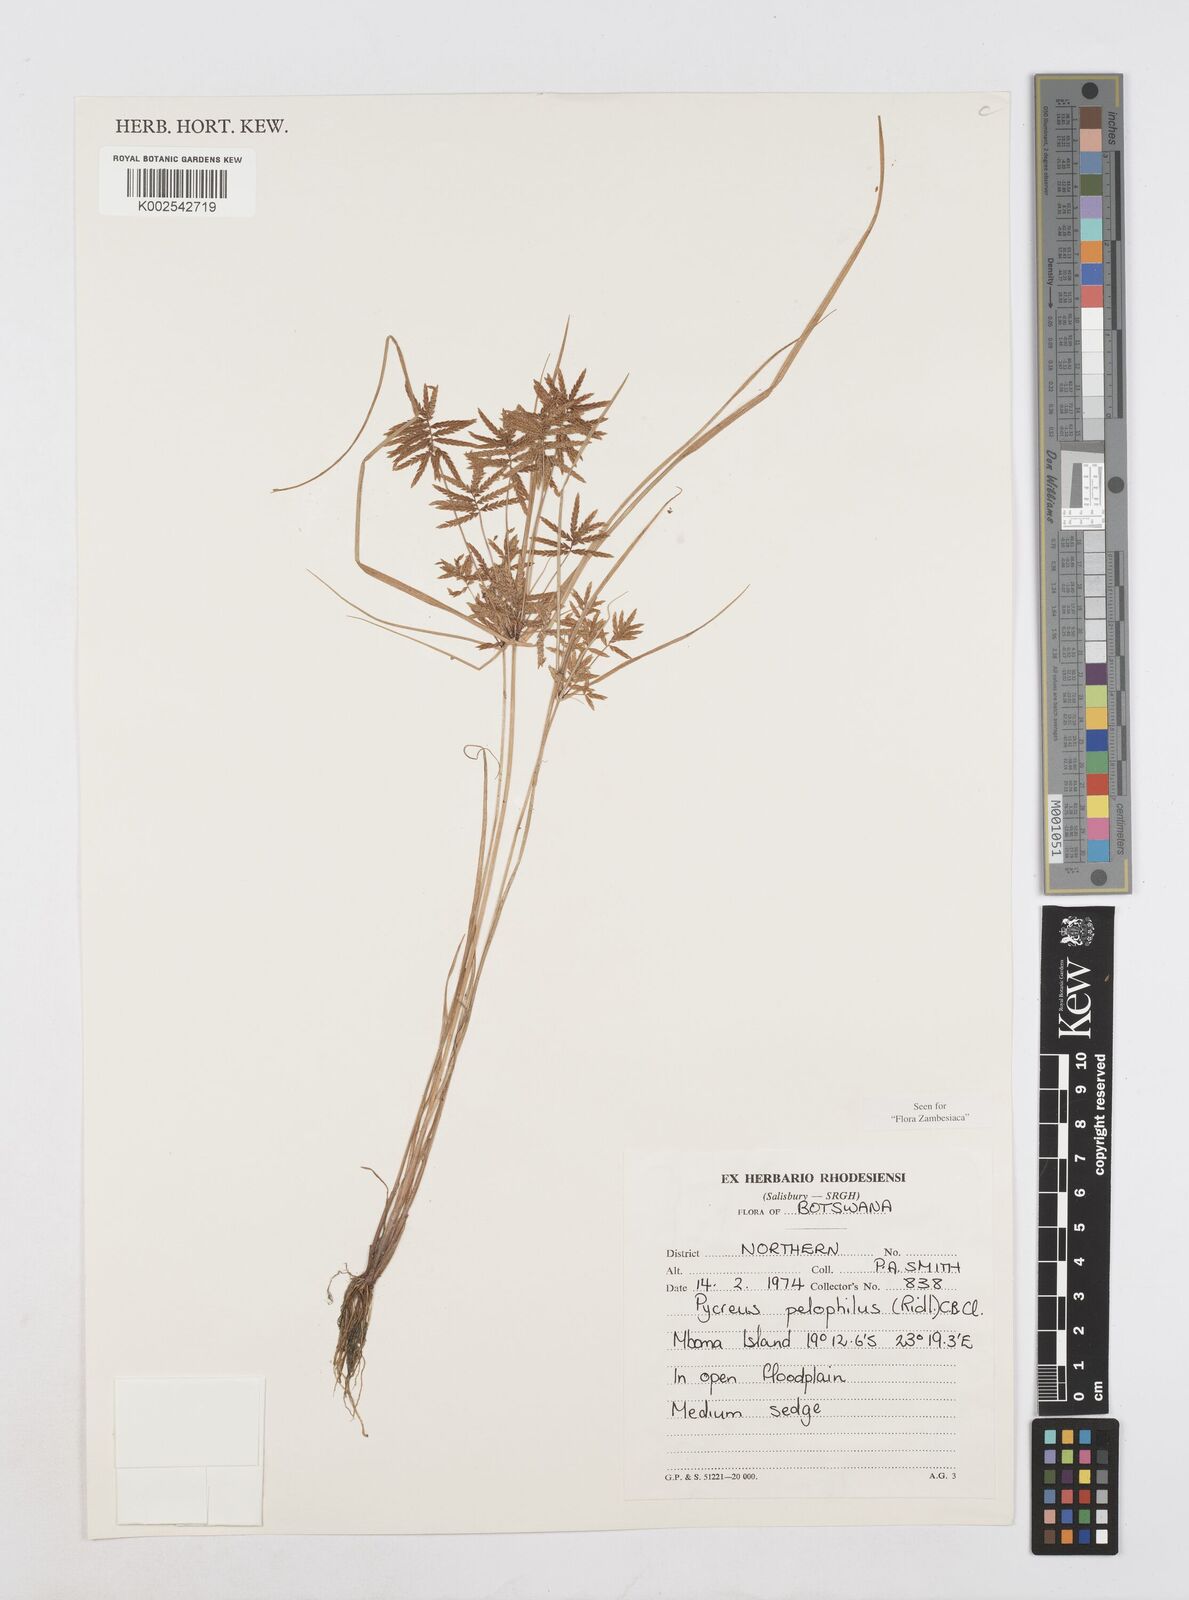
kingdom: Plantae
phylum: Tracheophyta
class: Liliopsida
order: Poales
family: Cyperaceae
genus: Cyperus
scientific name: Cyperus pelophilus
